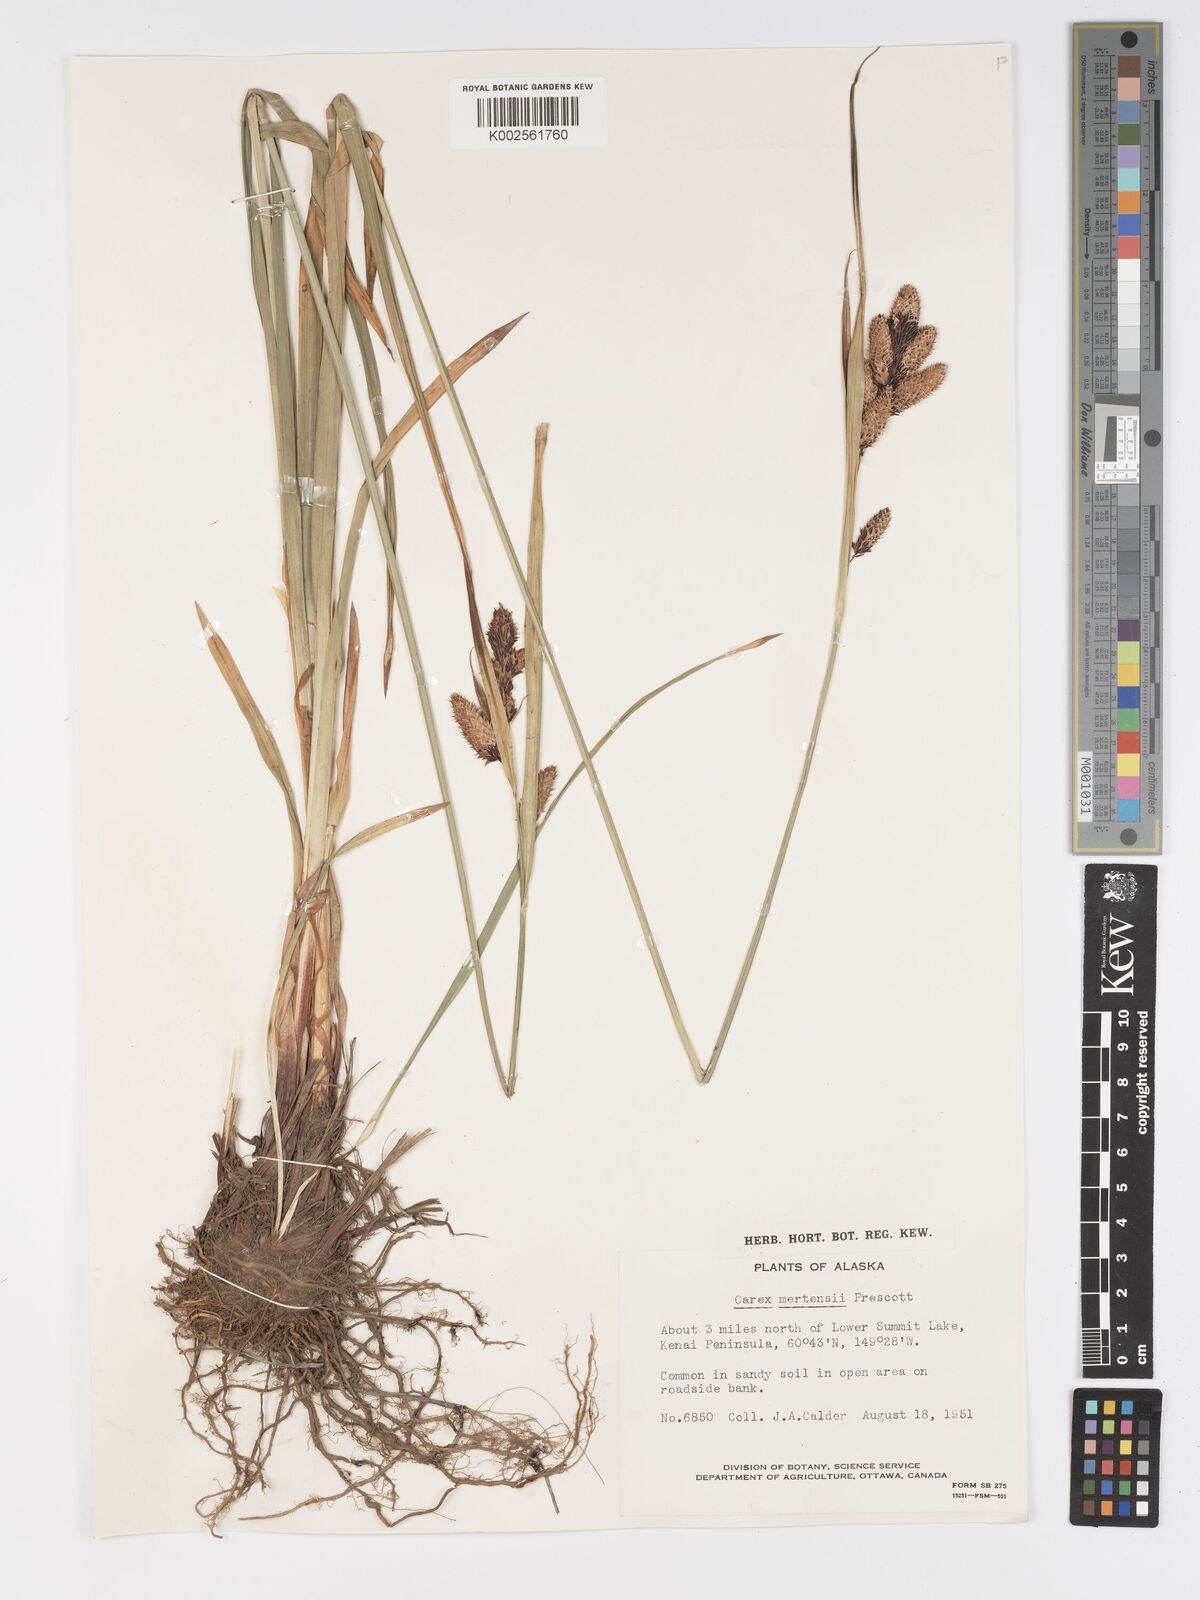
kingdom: Plantae
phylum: Tracheophyta
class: Liliopsida
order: Poales
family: Cyperaceae
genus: Carex
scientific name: Carex mertensii
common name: Mertens' sedge
